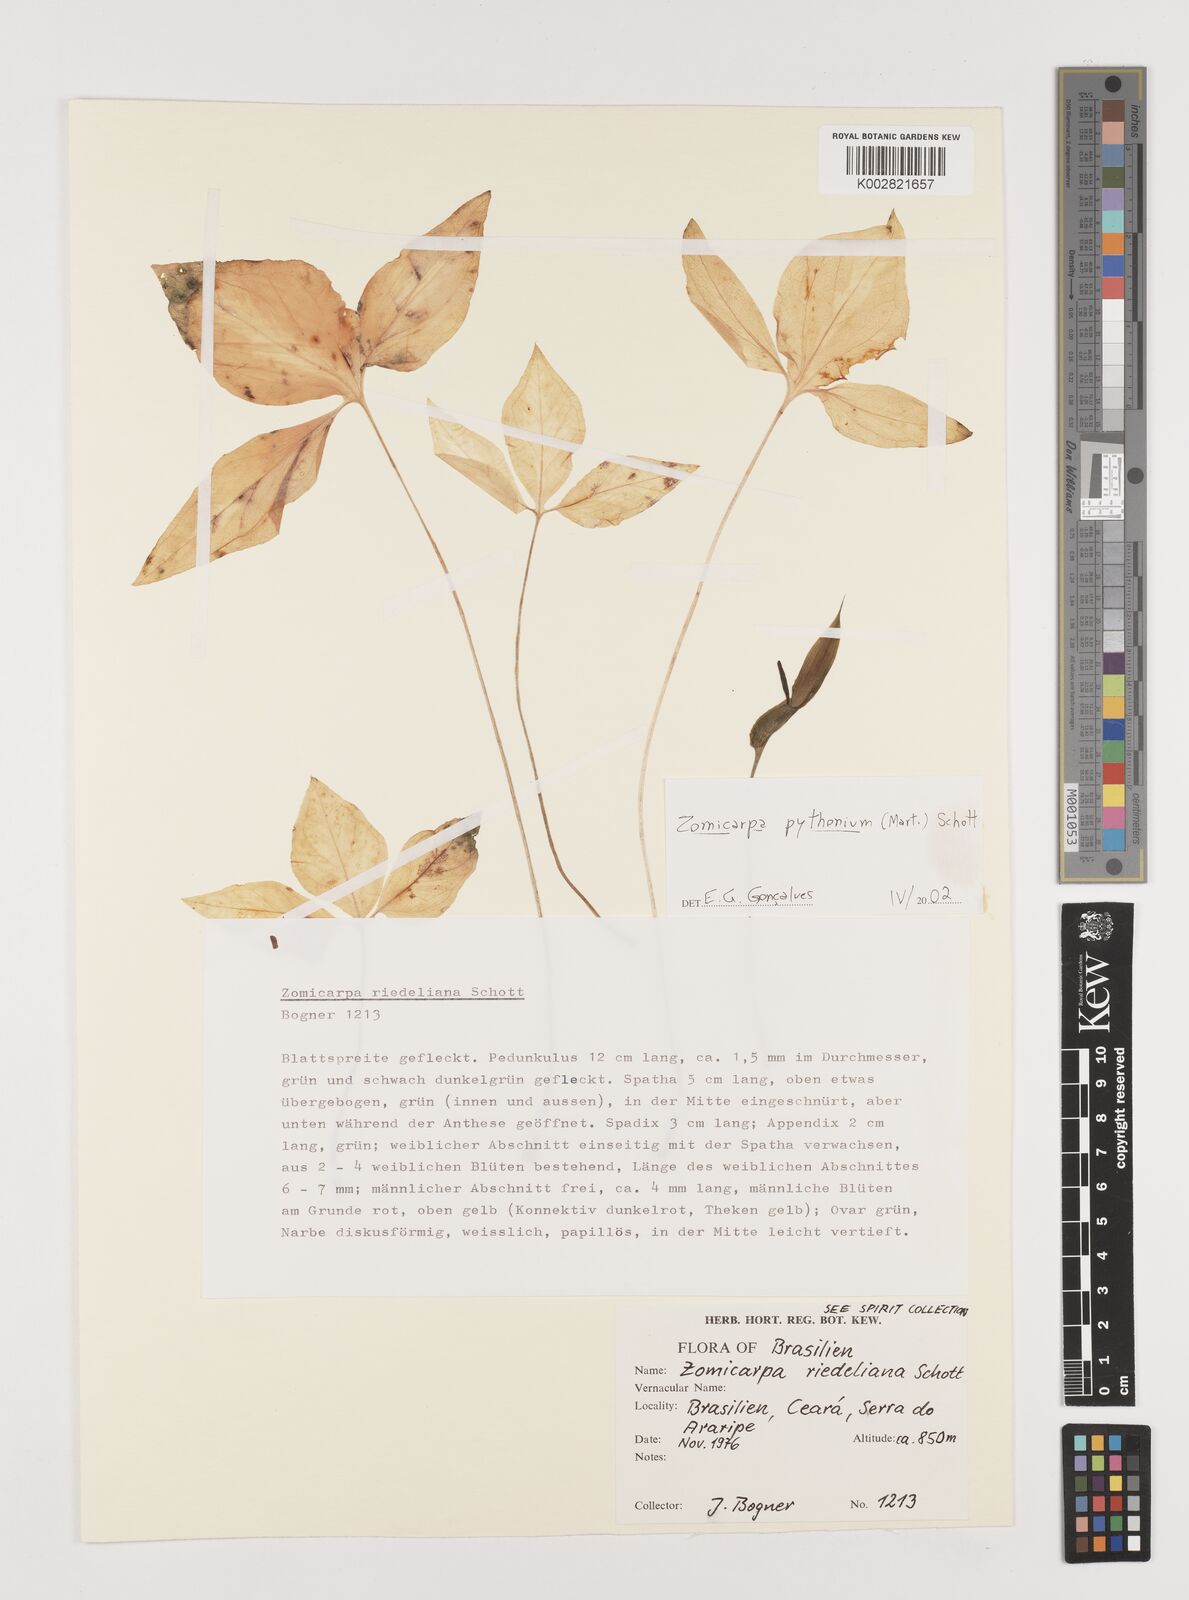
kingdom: Plantae
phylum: Tracheophyta
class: Liliopsida
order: Alismatales
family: Araceae
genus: Zomicarpa
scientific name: Zomicarpa pythonium
